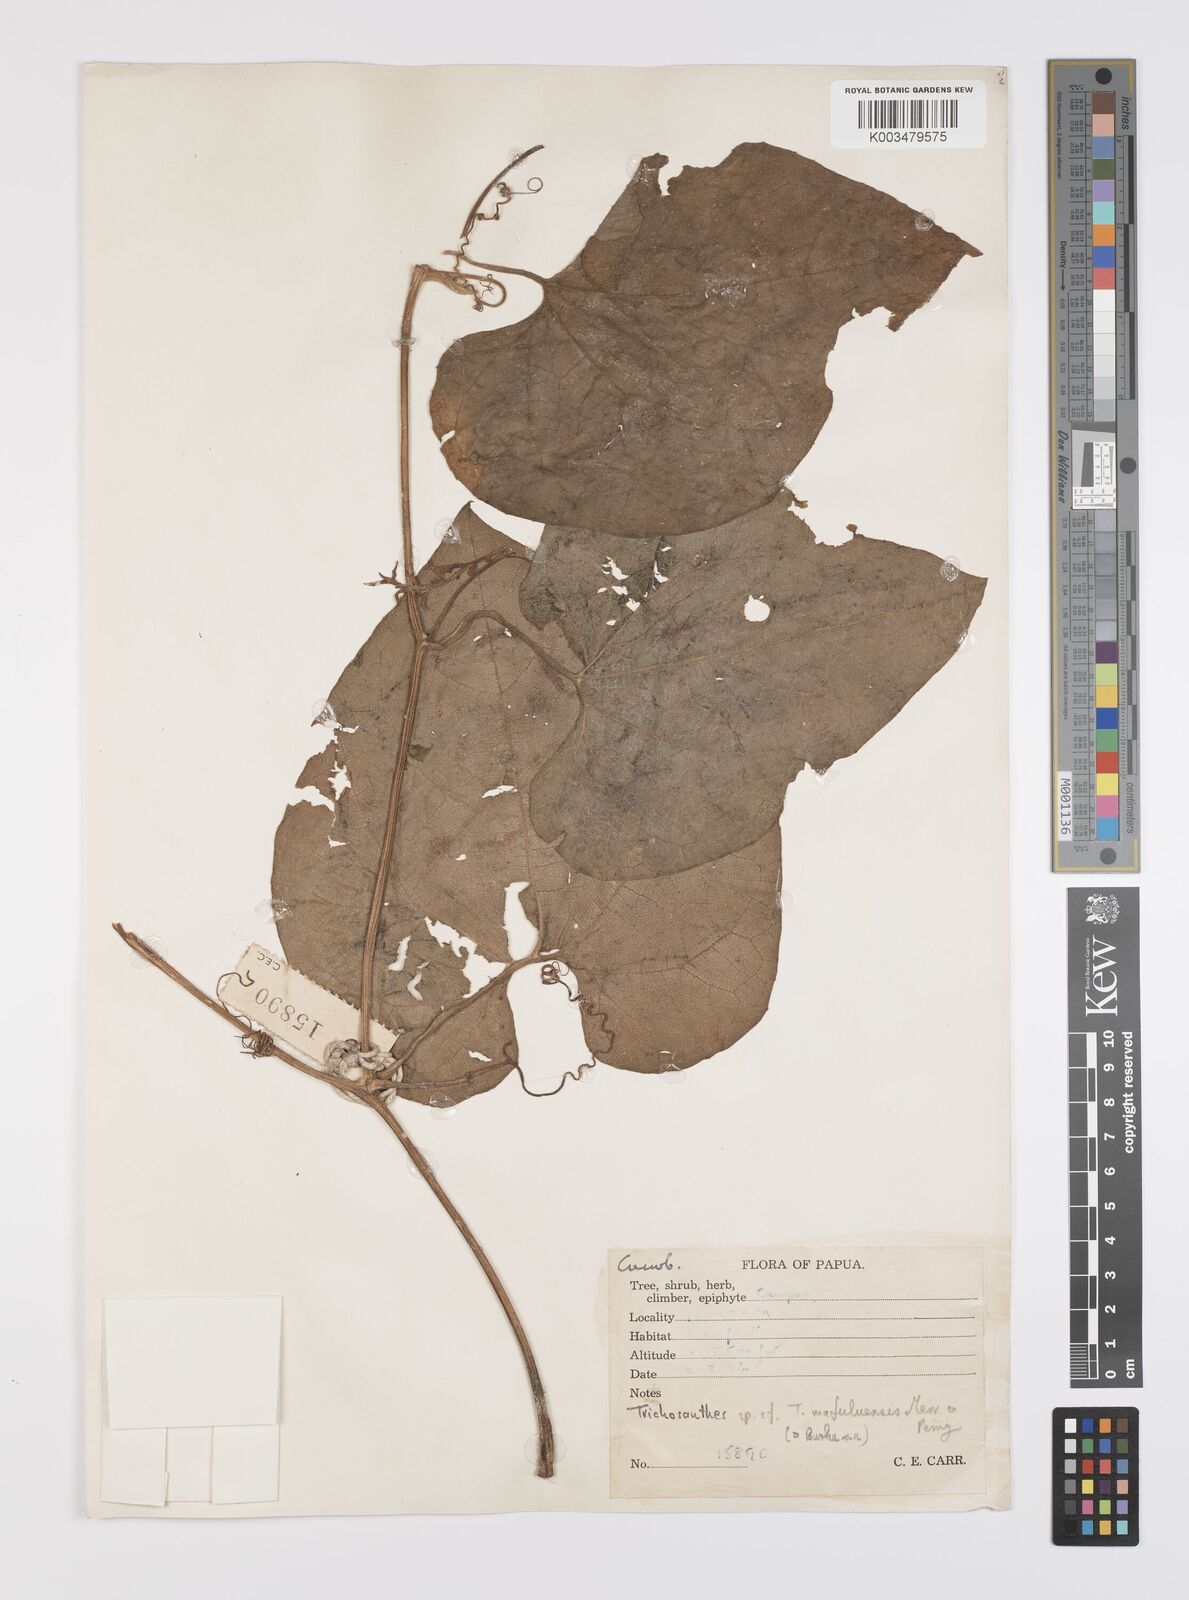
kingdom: Plantae
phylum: Tracheophyta
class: Magnoliopsida
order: Cucurbitales
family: Cucurbitaceae
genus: Trichosanthes
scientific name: Trichosanthes ovigera
